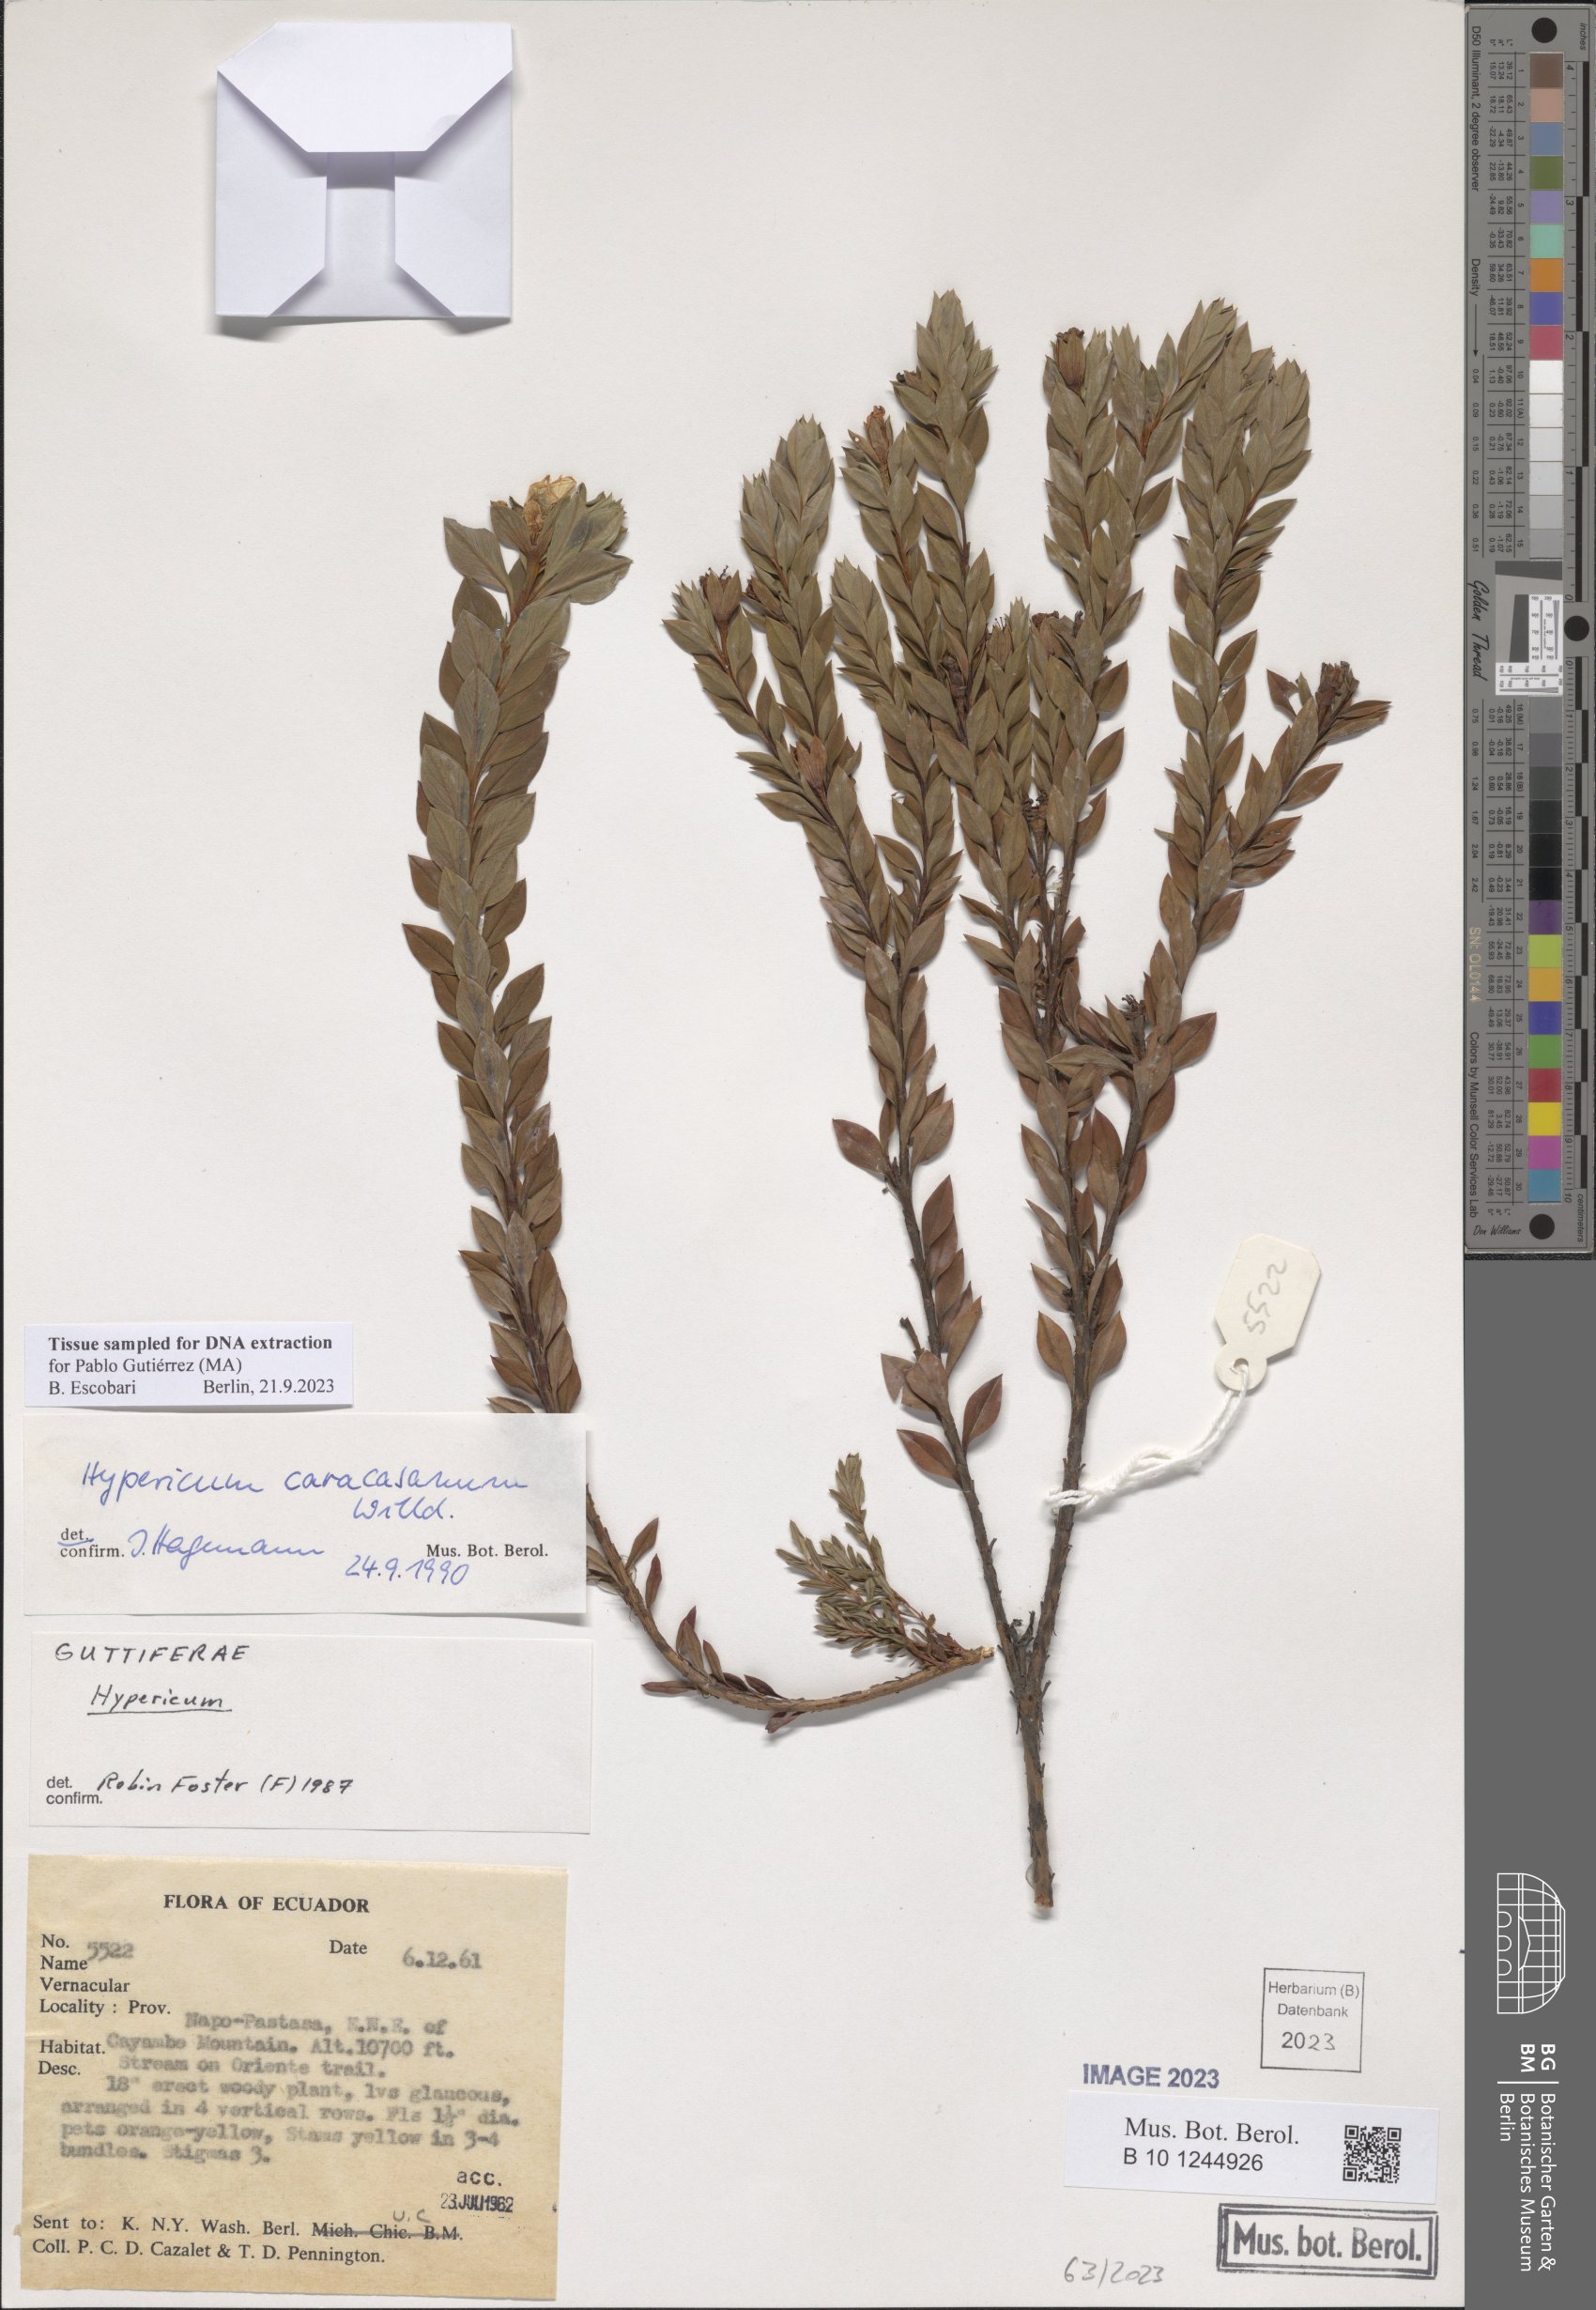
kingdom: Plantae
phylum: Tracheophyta
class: Magnoliopsida
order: Malpighiales
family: Hypericaceae
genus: Hypericum
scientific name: Hypericum caracasanum
